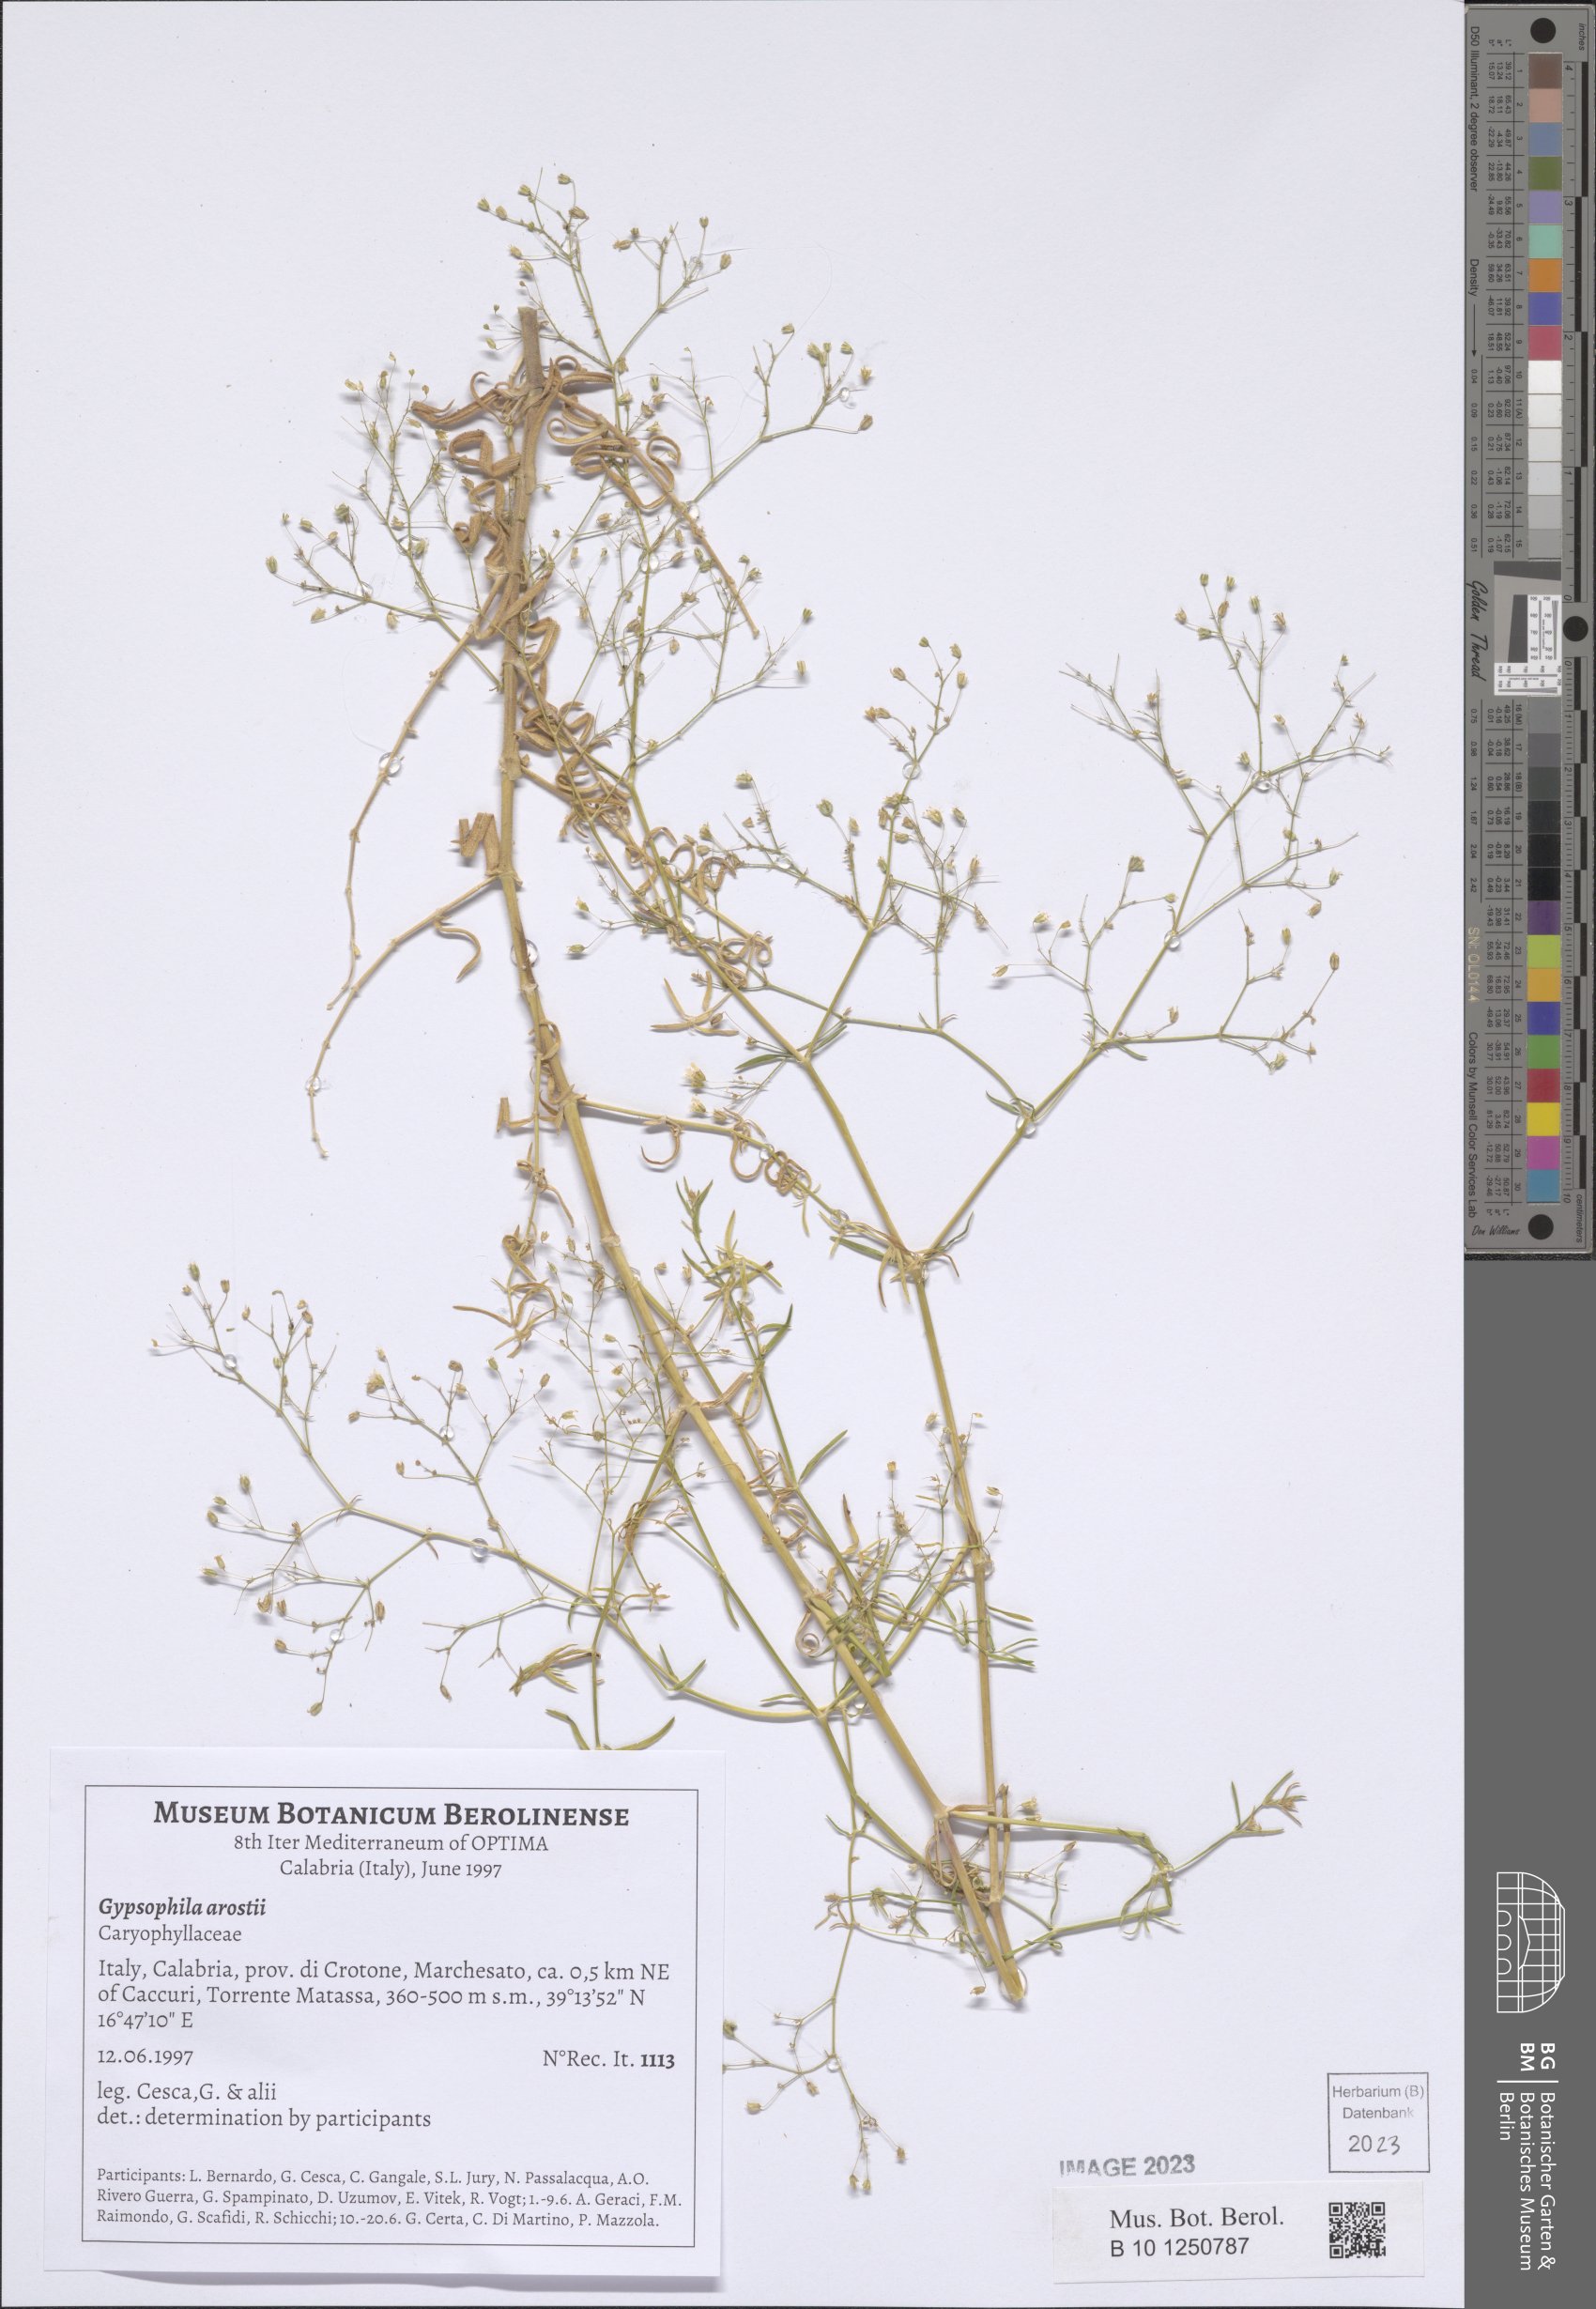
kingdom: Plantae
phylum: Tracheophyta
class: Magnoliopsida
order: Caryophyllales
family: Caryophyllaceae
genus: Gypsophila
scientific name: Gypsophila arrostii
